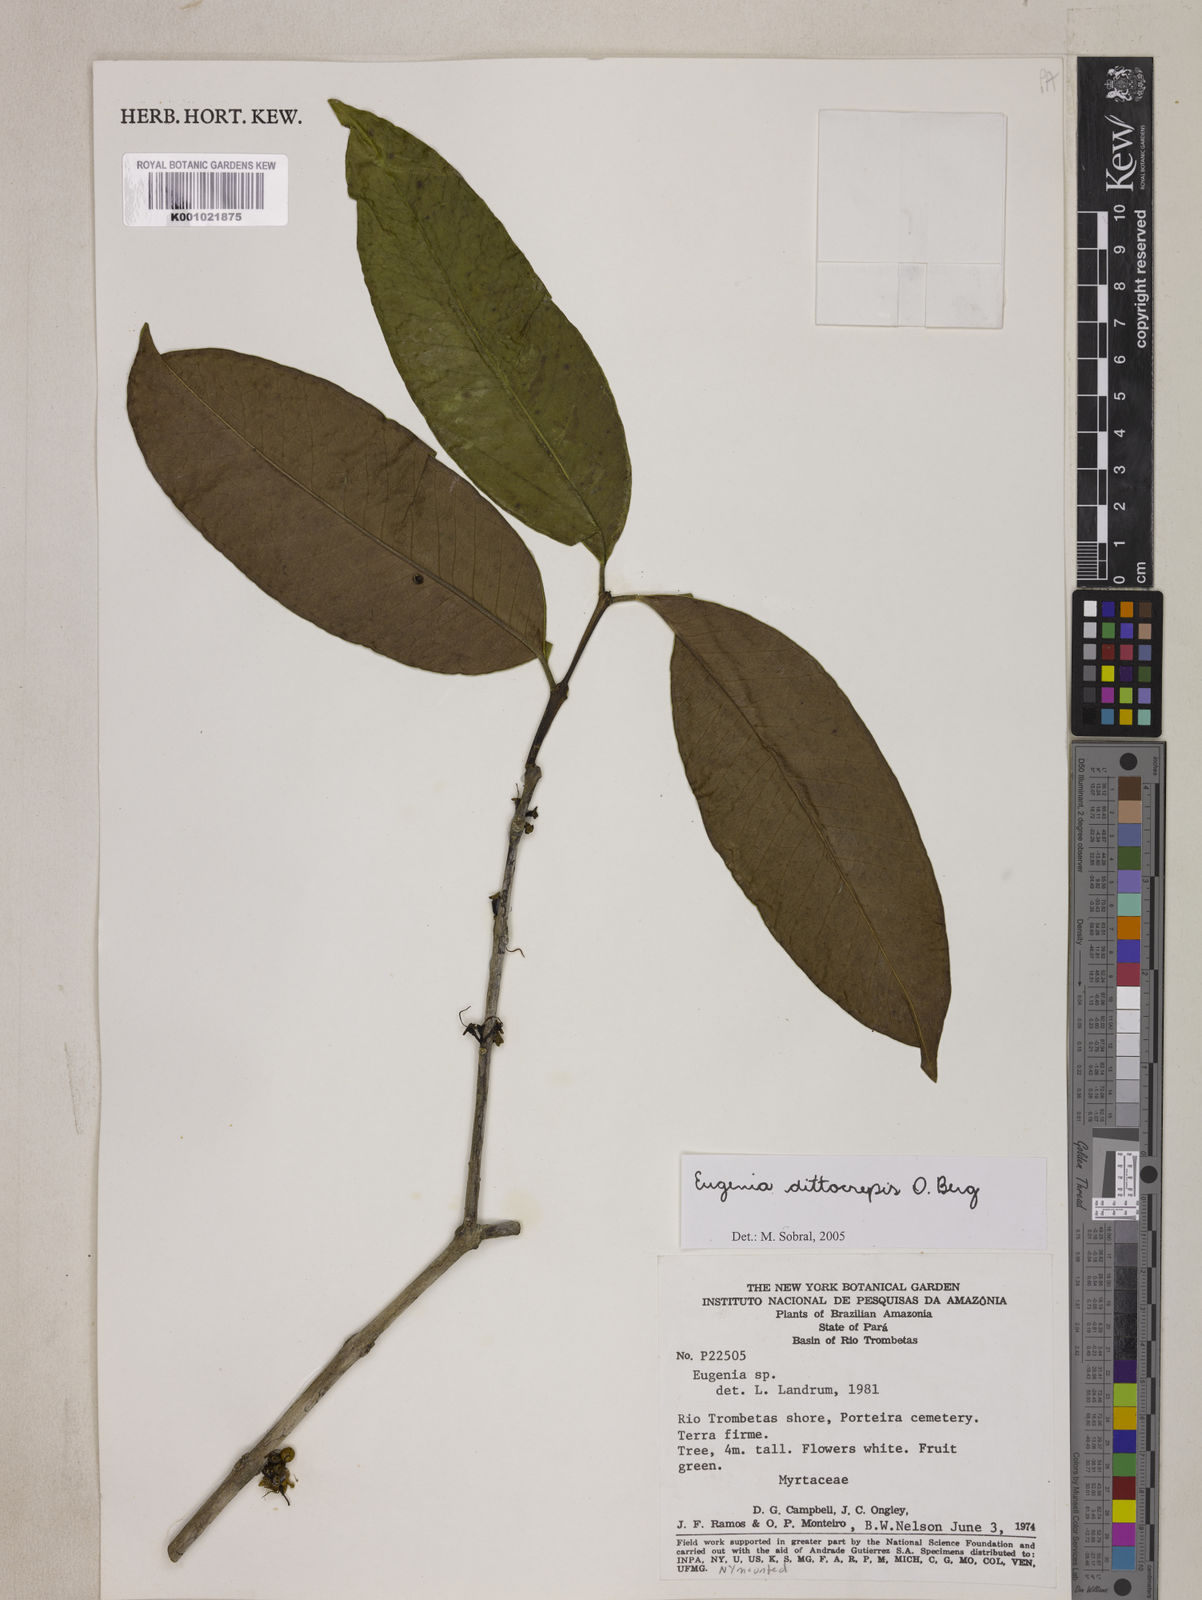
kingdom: Plantae
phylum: Tracheophyta
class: Magnoliopsida
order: Myrtales
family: Myrtaceae
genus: Eugenia
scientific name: Eugenia dittocrepis
